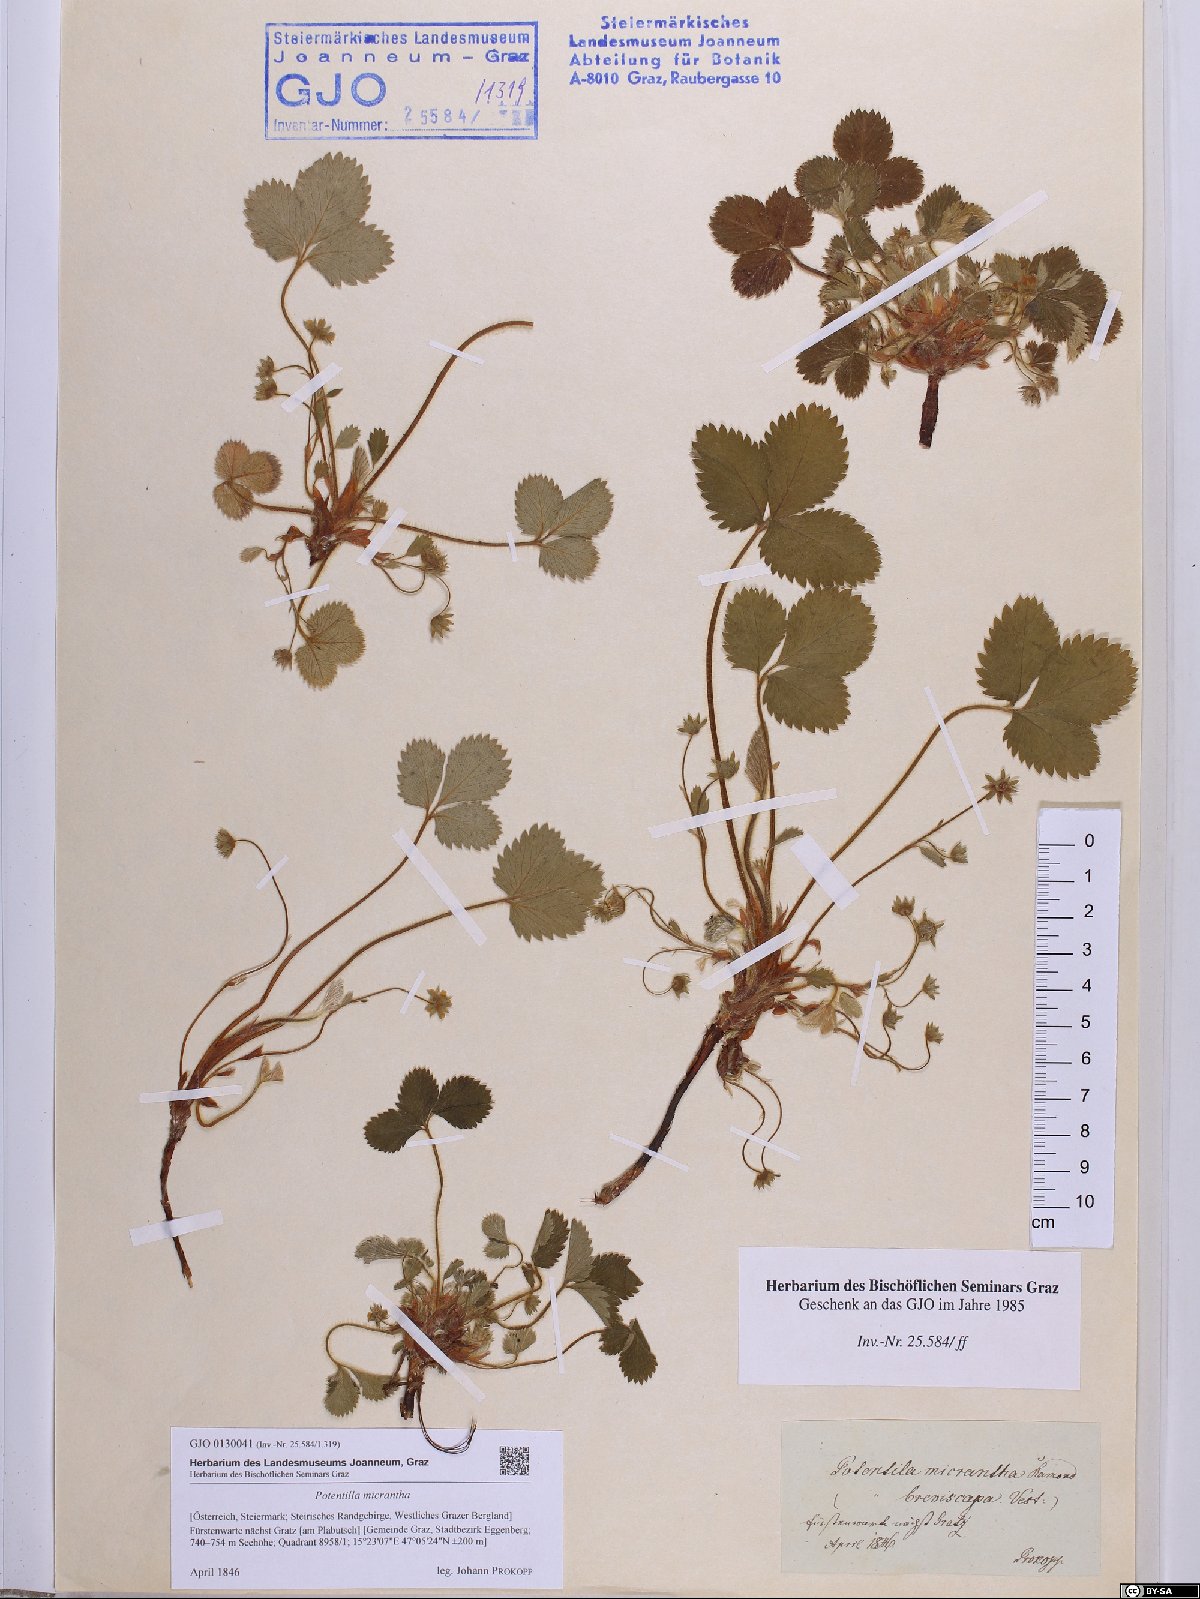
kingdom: Plantae
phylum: Tracheophyta
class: Magnoliopsida
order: Rosales
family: Rosaceae
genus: Potentilla
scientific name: Potentilla micrantha
